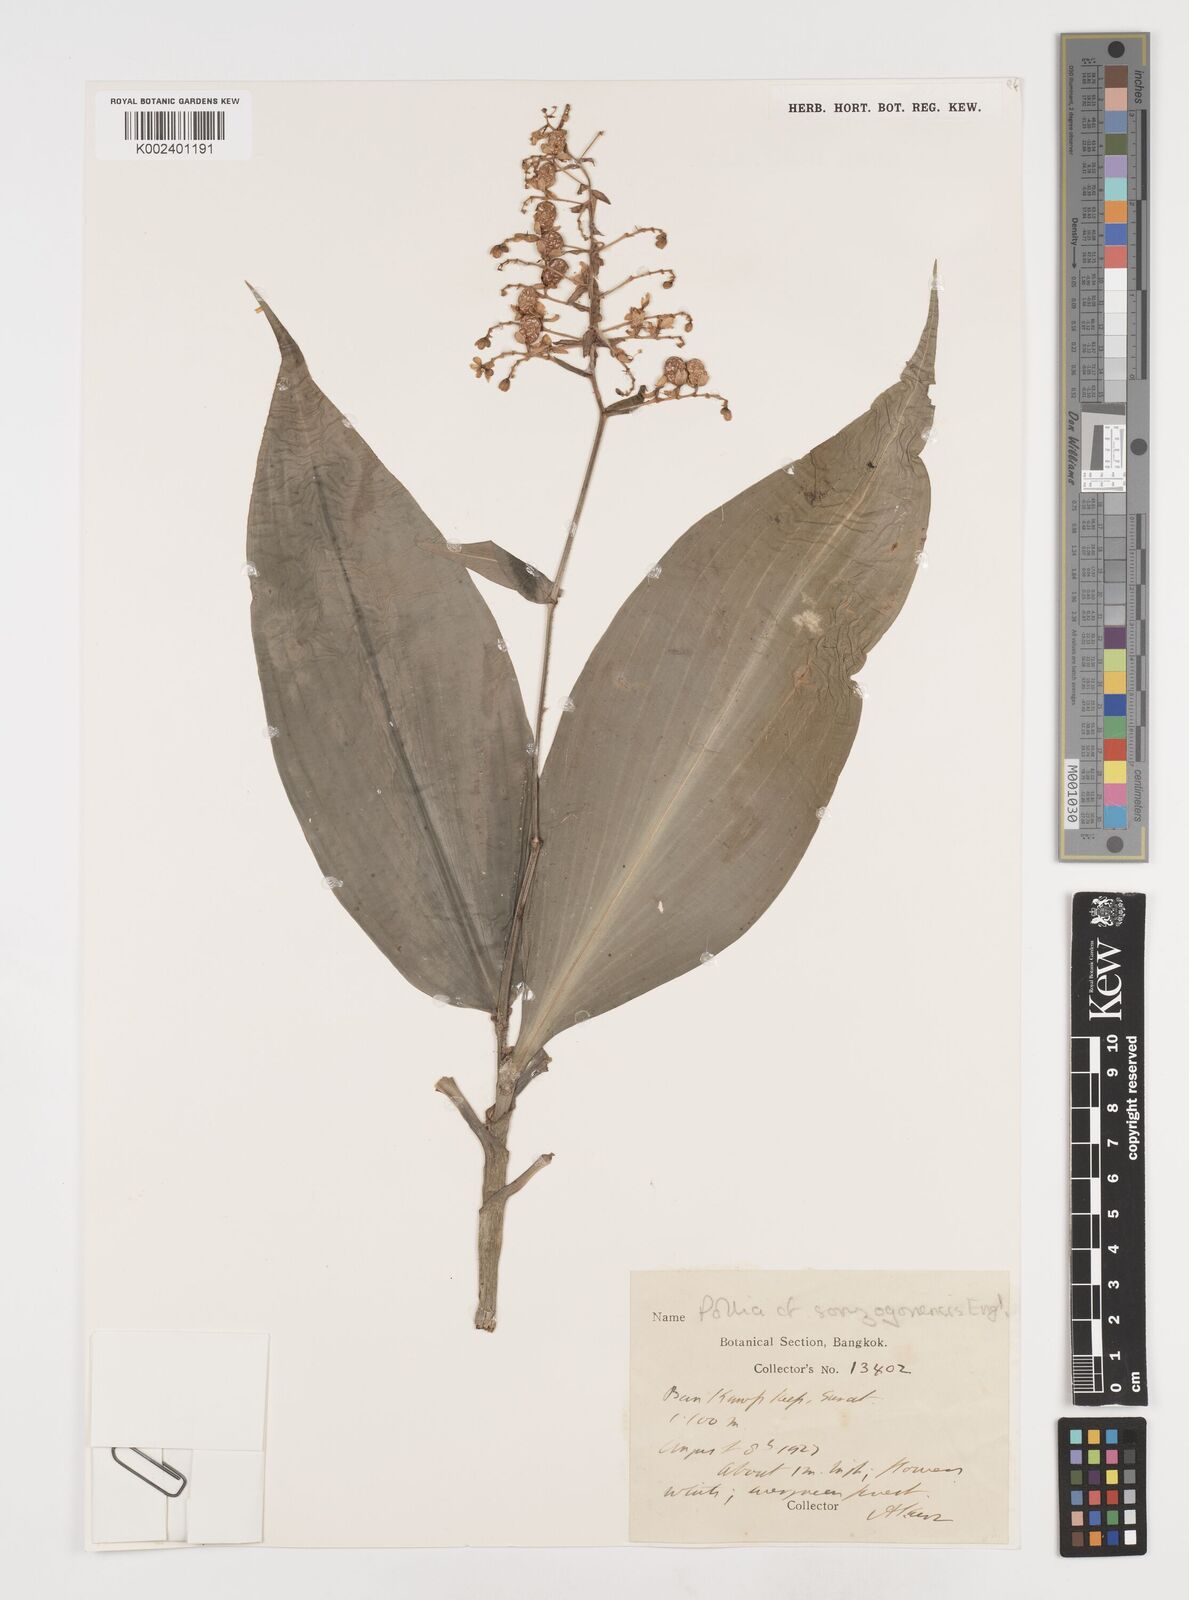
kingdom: Plantae
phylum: Tracheophyta
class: Liliopsida
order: Commelinales
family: Commelinaceae
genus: Pollia
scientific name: Pollia secundiflora
